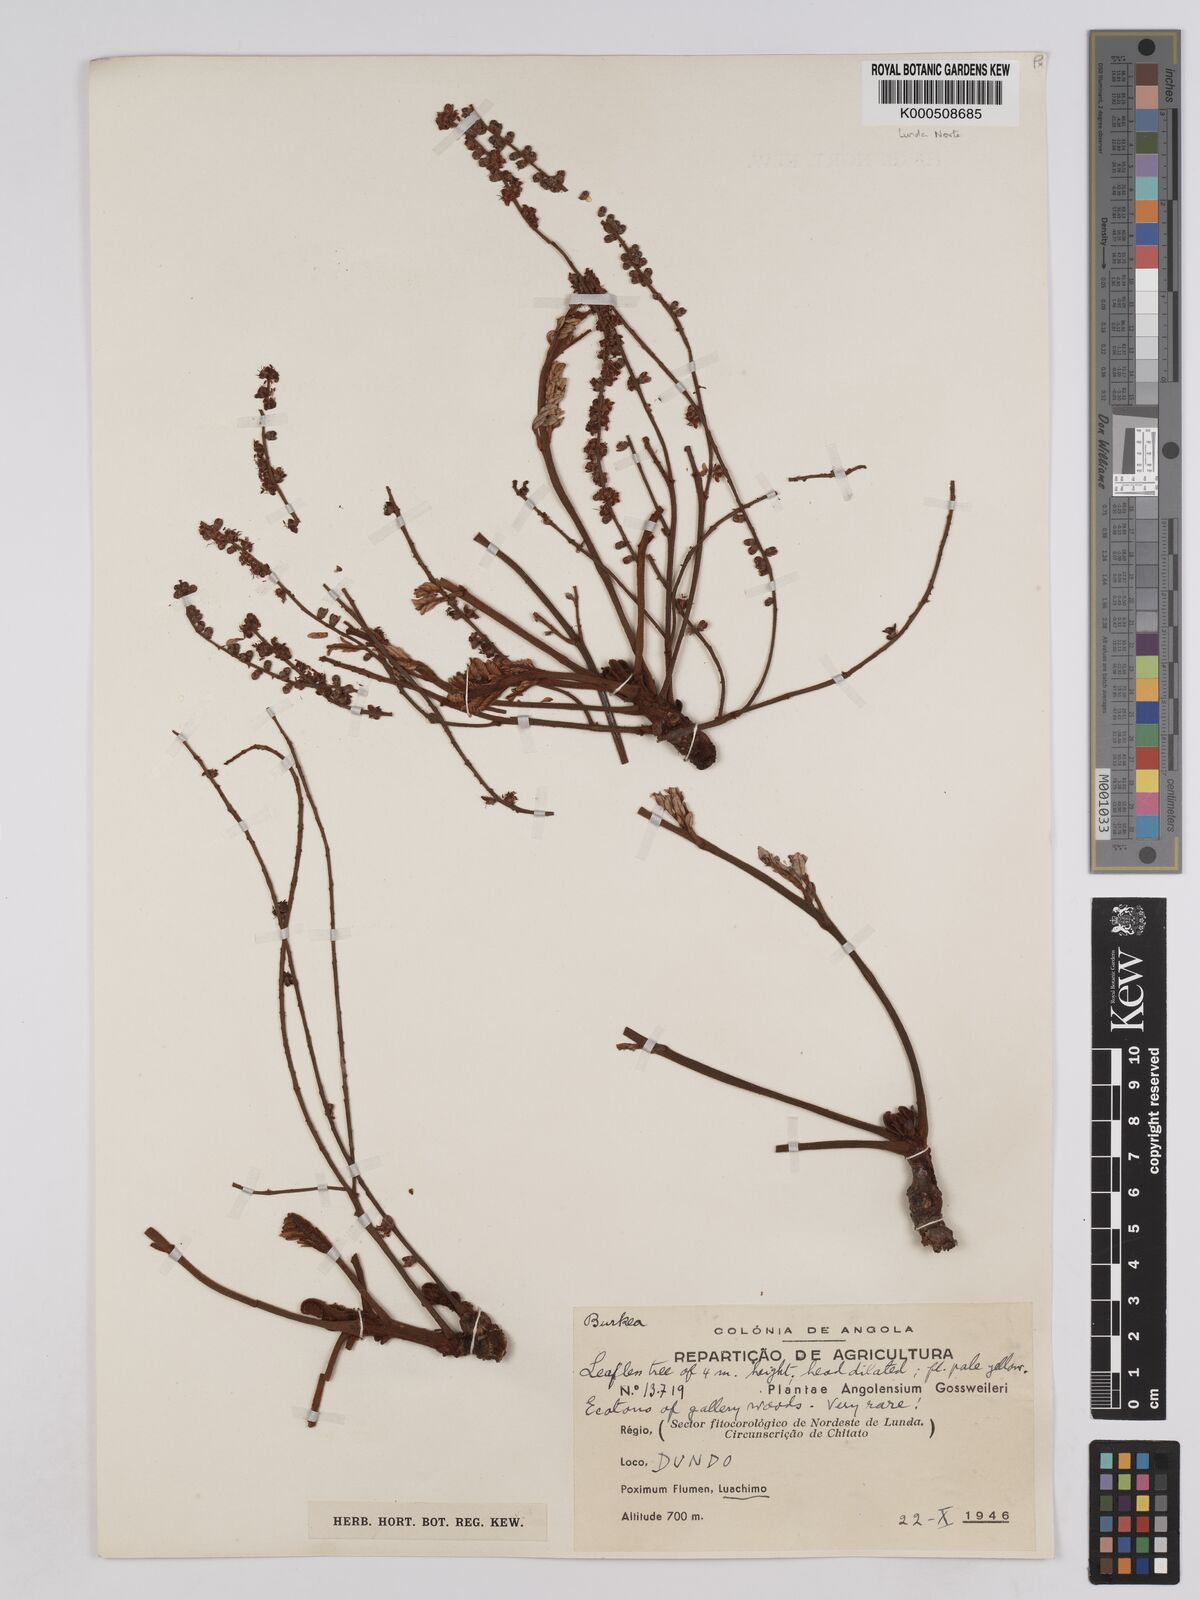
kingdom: Plantae
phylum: Tracheophyta
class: Magnoliopsida
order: Fabales
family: Fabaceae
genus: Burkea
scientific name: Burkea africana
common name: Mkalati tree
